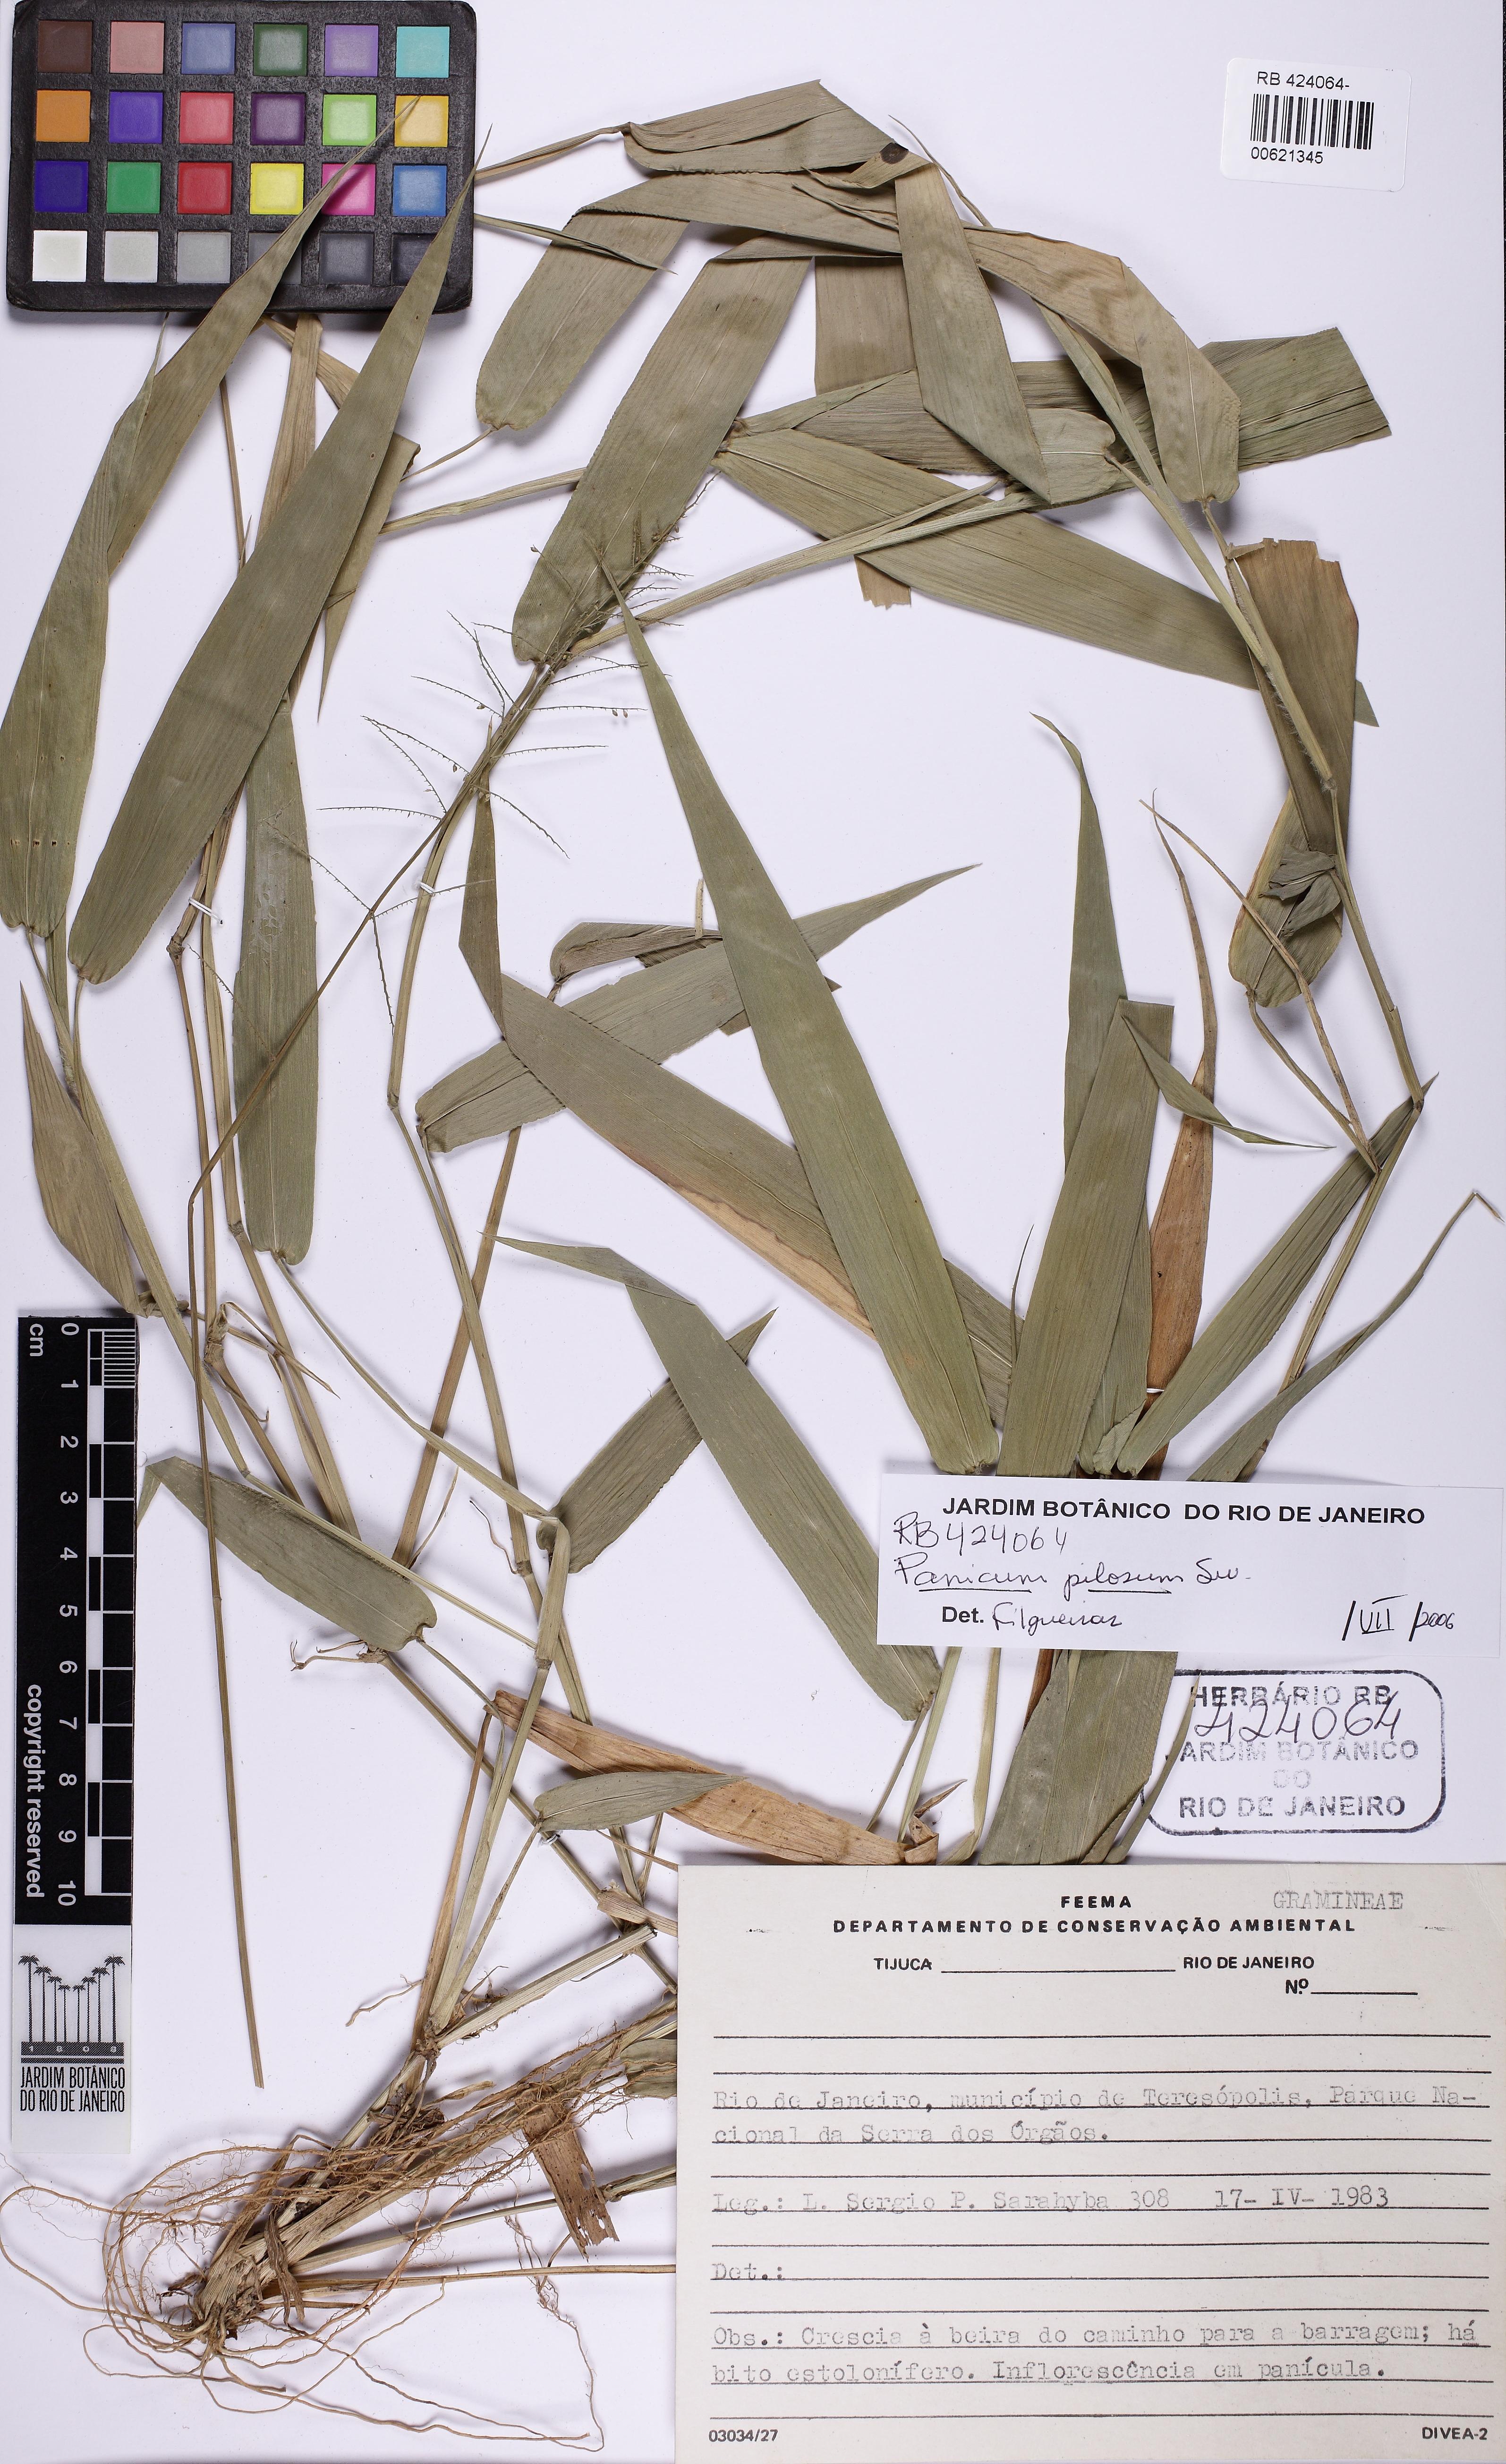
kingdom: Plantae
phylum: Tracheophyta
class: Liliopsida
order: Poales
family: Poaceae
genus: Rugoloa
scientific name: Rugoloa pilosa
